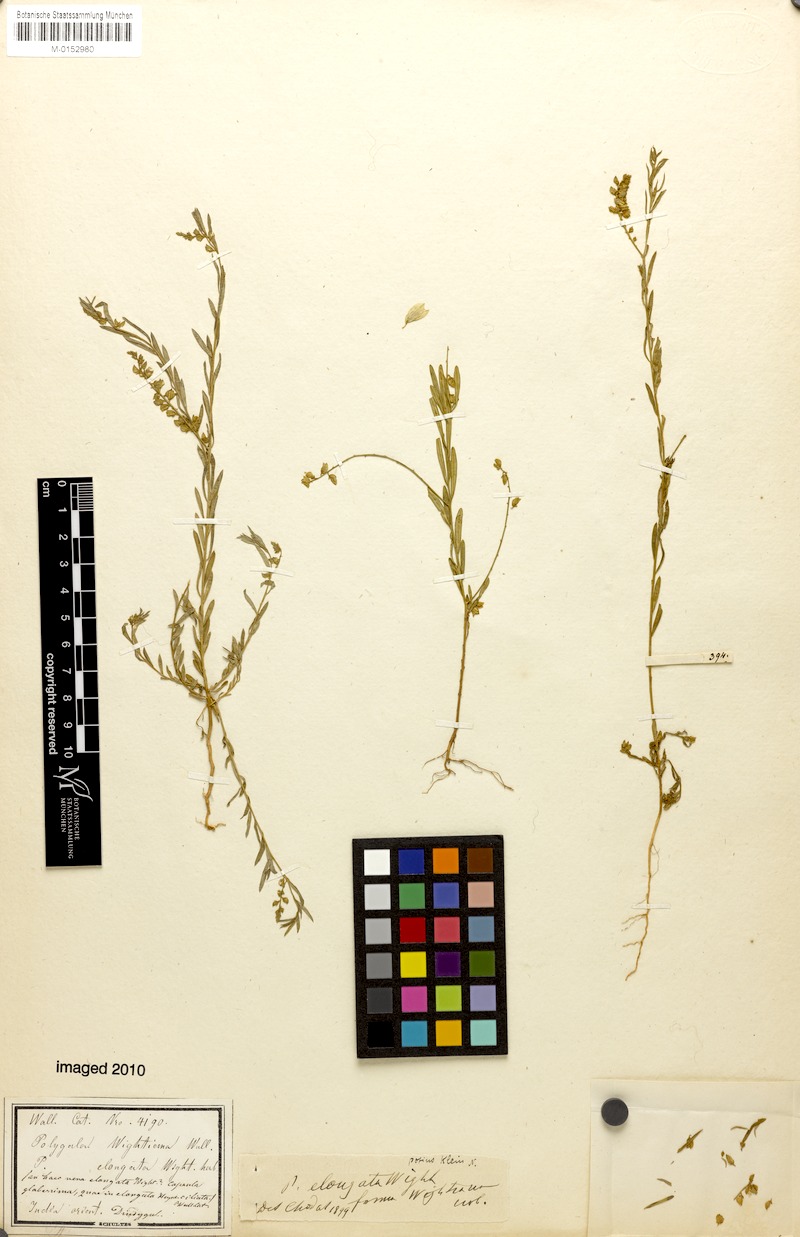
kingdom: Plantae
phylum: Tracheophyta
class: Magnoliopsida
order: Fabales
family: Polygalaceae
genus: Polygala
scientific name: Polygala wightiana
